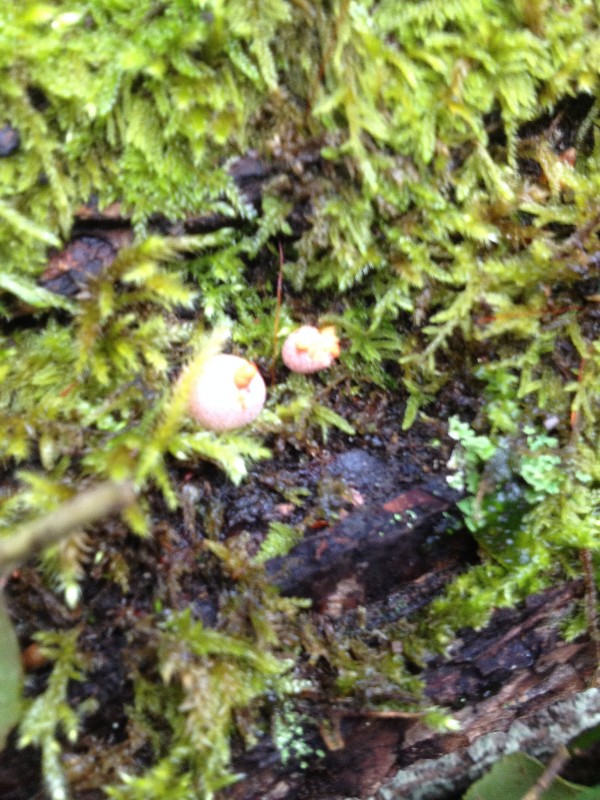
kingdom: Protozoa
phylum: Mycetozoa
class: Myxomycetes
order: Cribrariales
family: Tubiferaceae
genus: Lycogala
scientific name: Lycogala epidendrum
